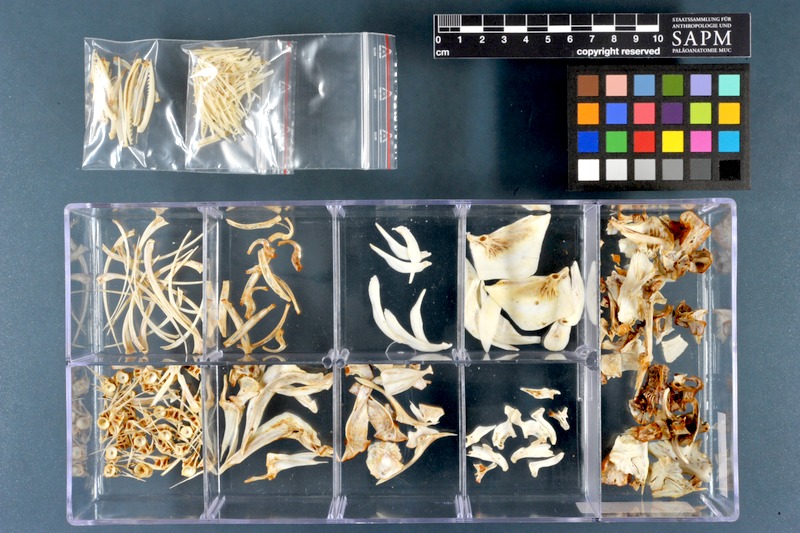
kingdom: Animalia
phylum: Chordata
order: Cypriniformes
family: Cyprinidae
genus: Cyprinus
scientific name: Cyprinus carpio
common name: Common carp
